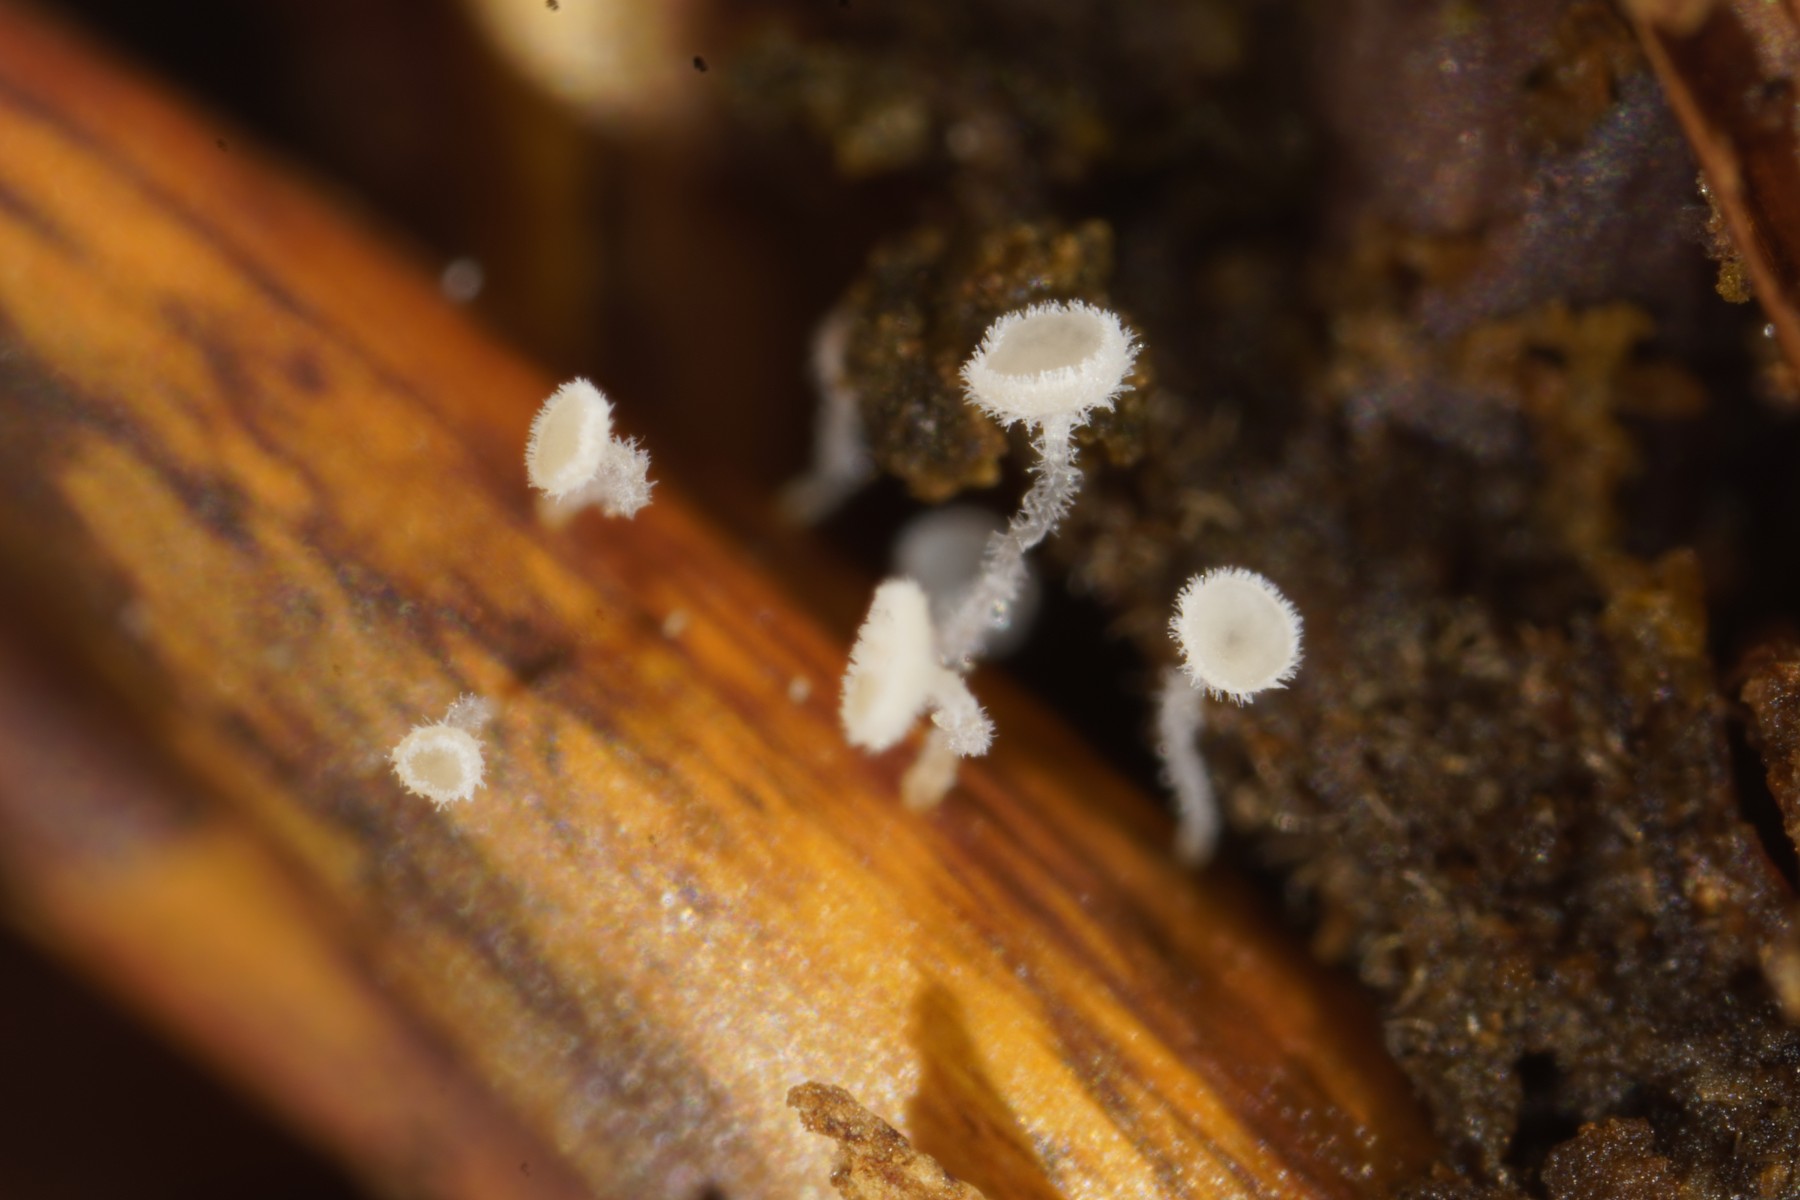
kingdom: Fungi
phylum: Ascomycota
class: Leotiomycetes
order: Helotiales
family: Lachnaceae
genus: Lachnum
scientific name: Lachnum
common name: frynseskive
